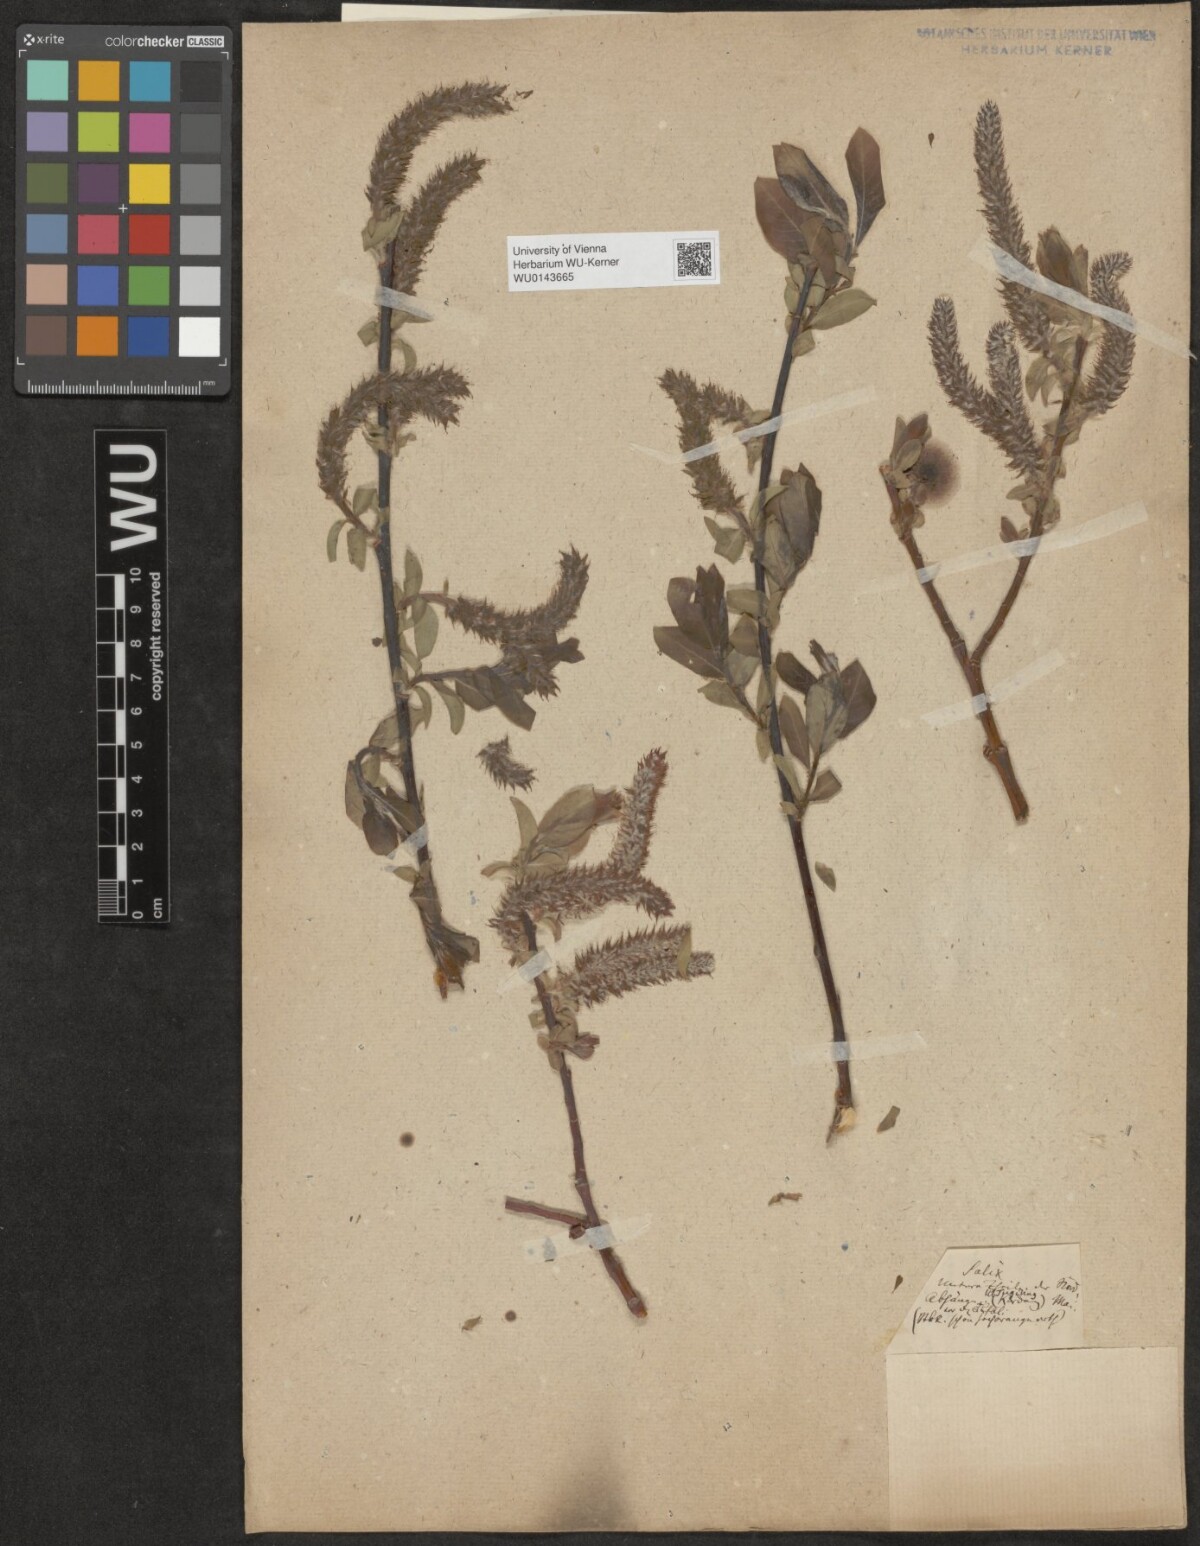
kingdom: Plantae
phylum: Tracheophyta
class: Magnoliopsida
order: Malpighiales
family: Salicaceae
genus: Salix
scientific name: Salix
